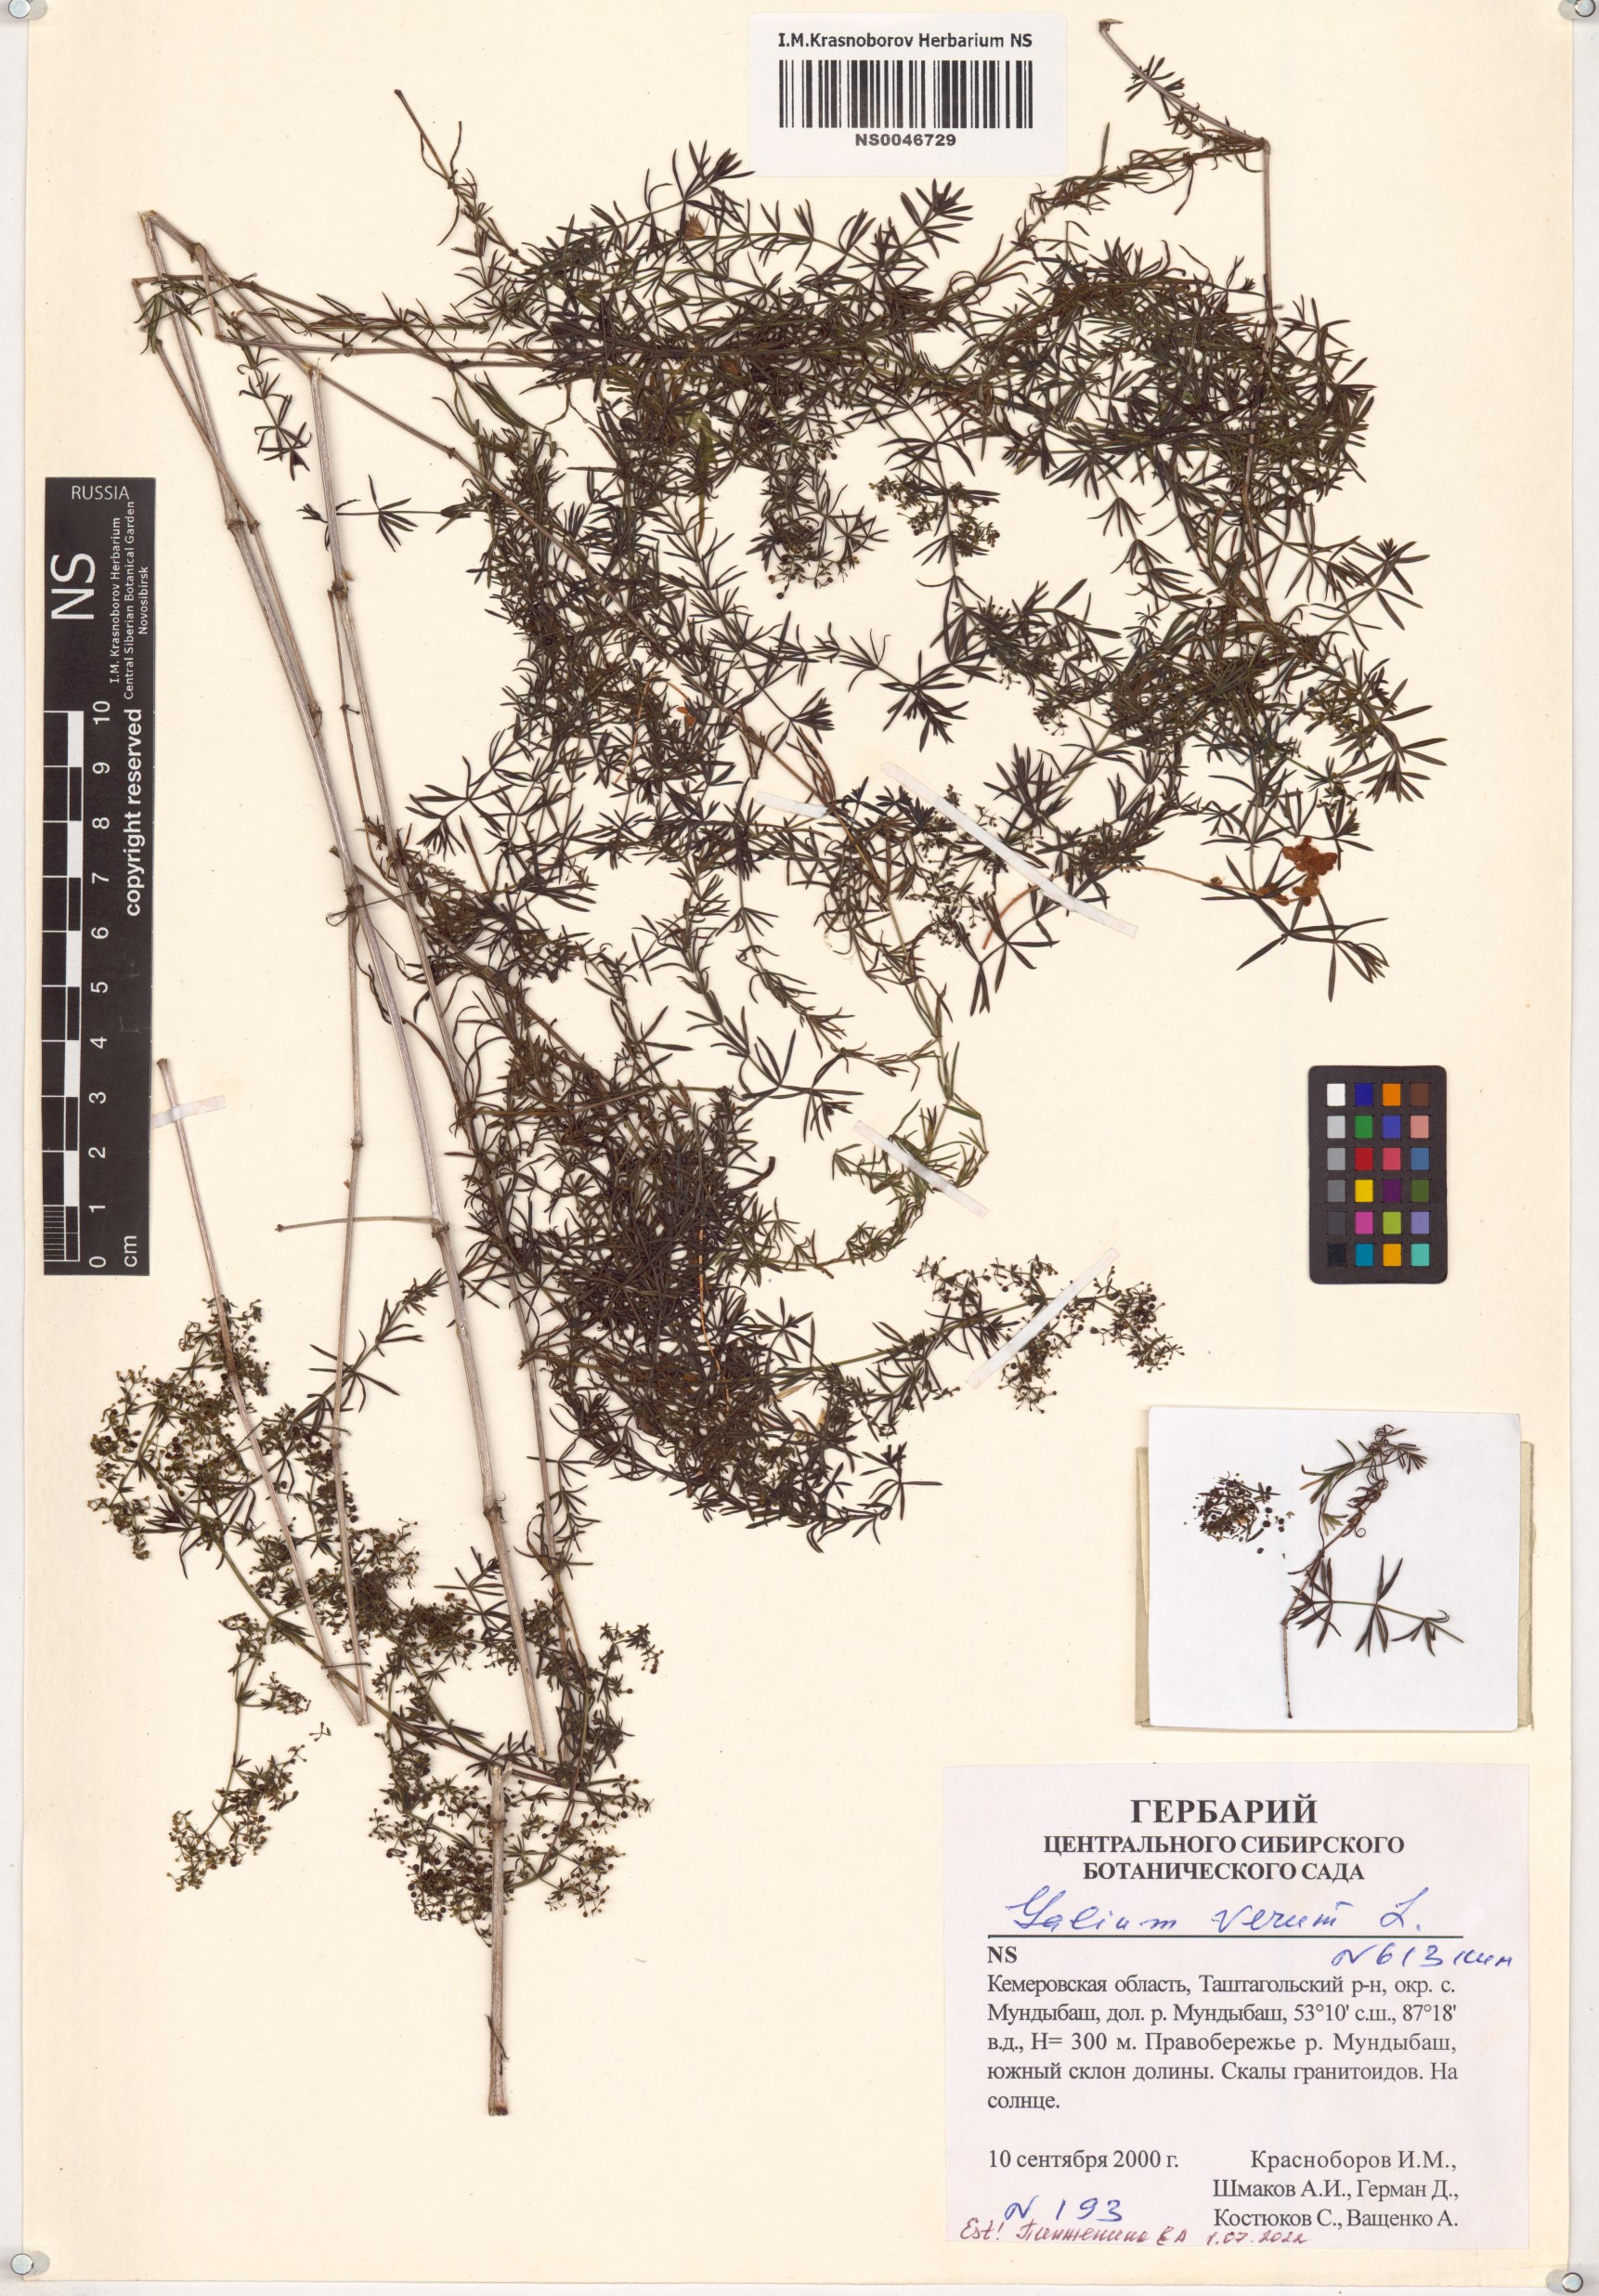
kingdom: Plantae
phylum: Tracheophyta
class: Magnoliopsida
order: Gentianales
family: Rubiaceae
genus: Galium
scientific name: Galium verum
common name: Lady's bedstraw
